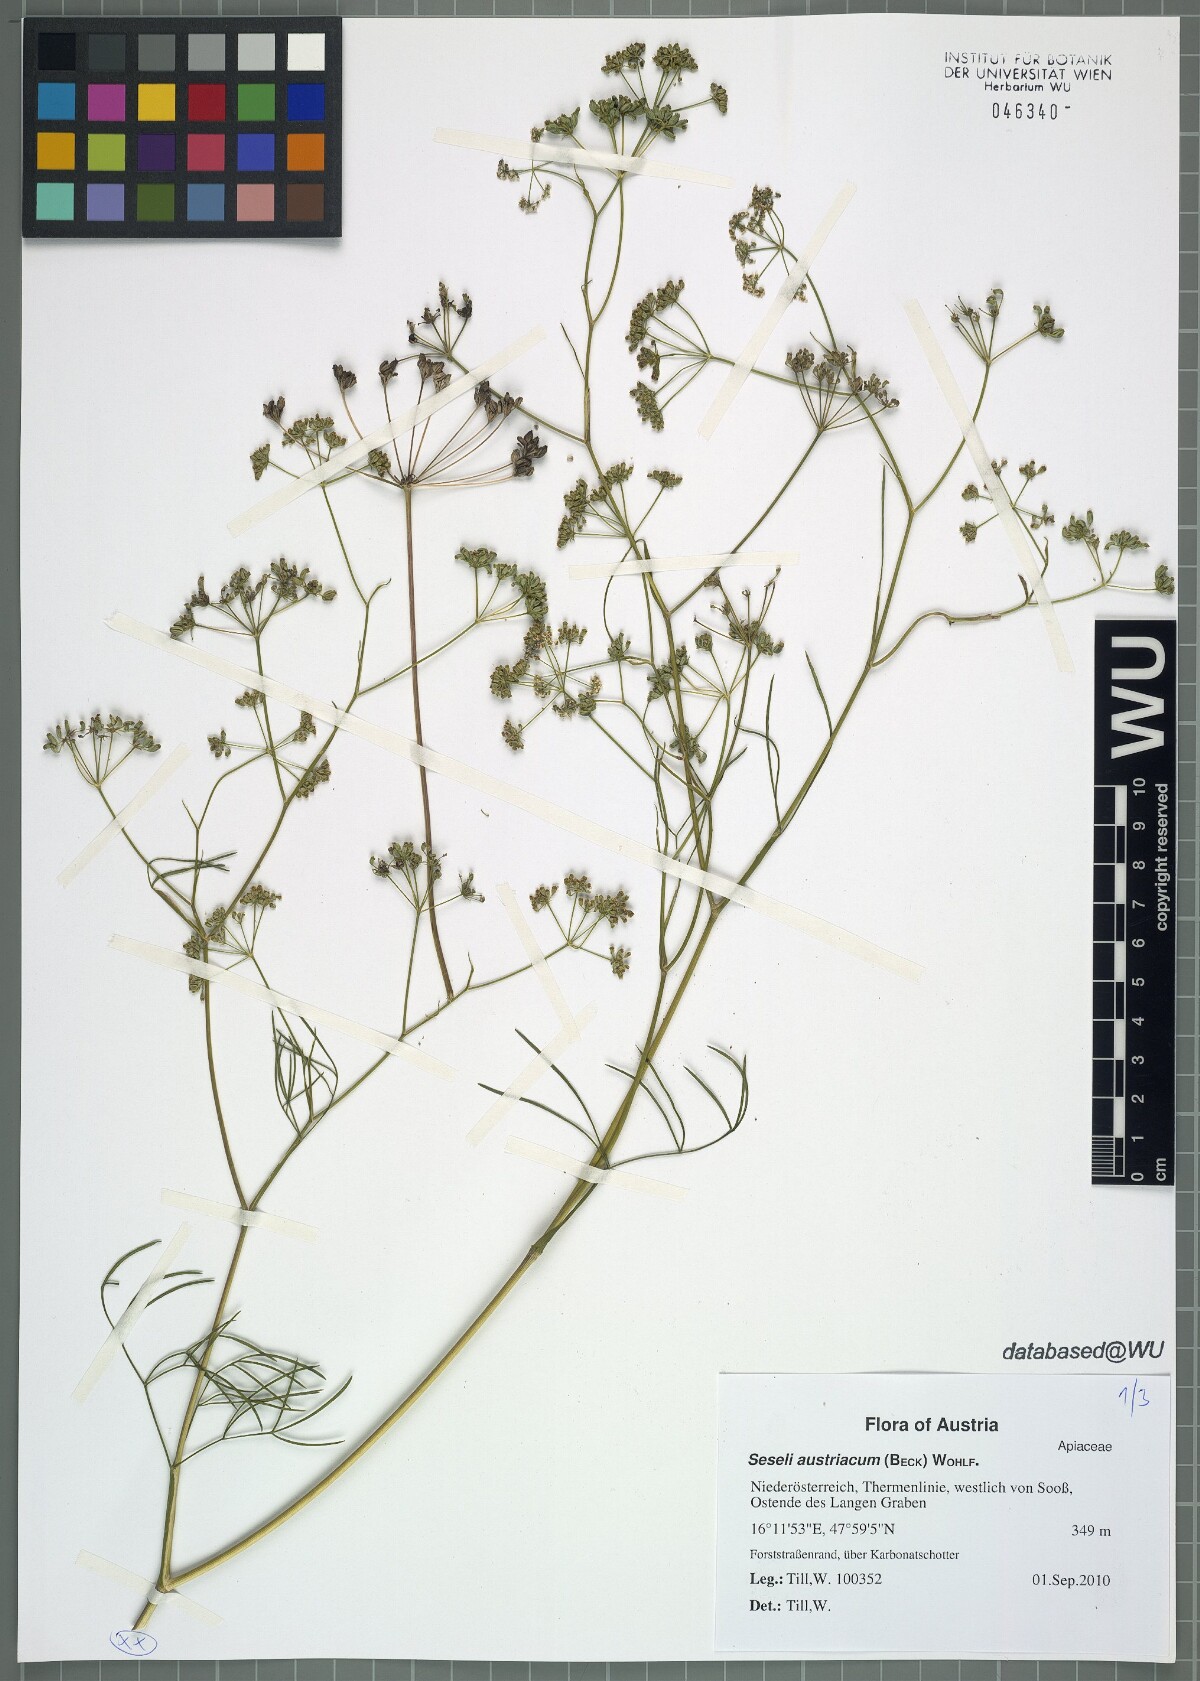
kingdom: Plantae
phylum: Tracheophyta
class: Magnoliopsida
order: Apiales
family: Apiaceae
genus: Seseli
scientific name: Seseli austriacum
